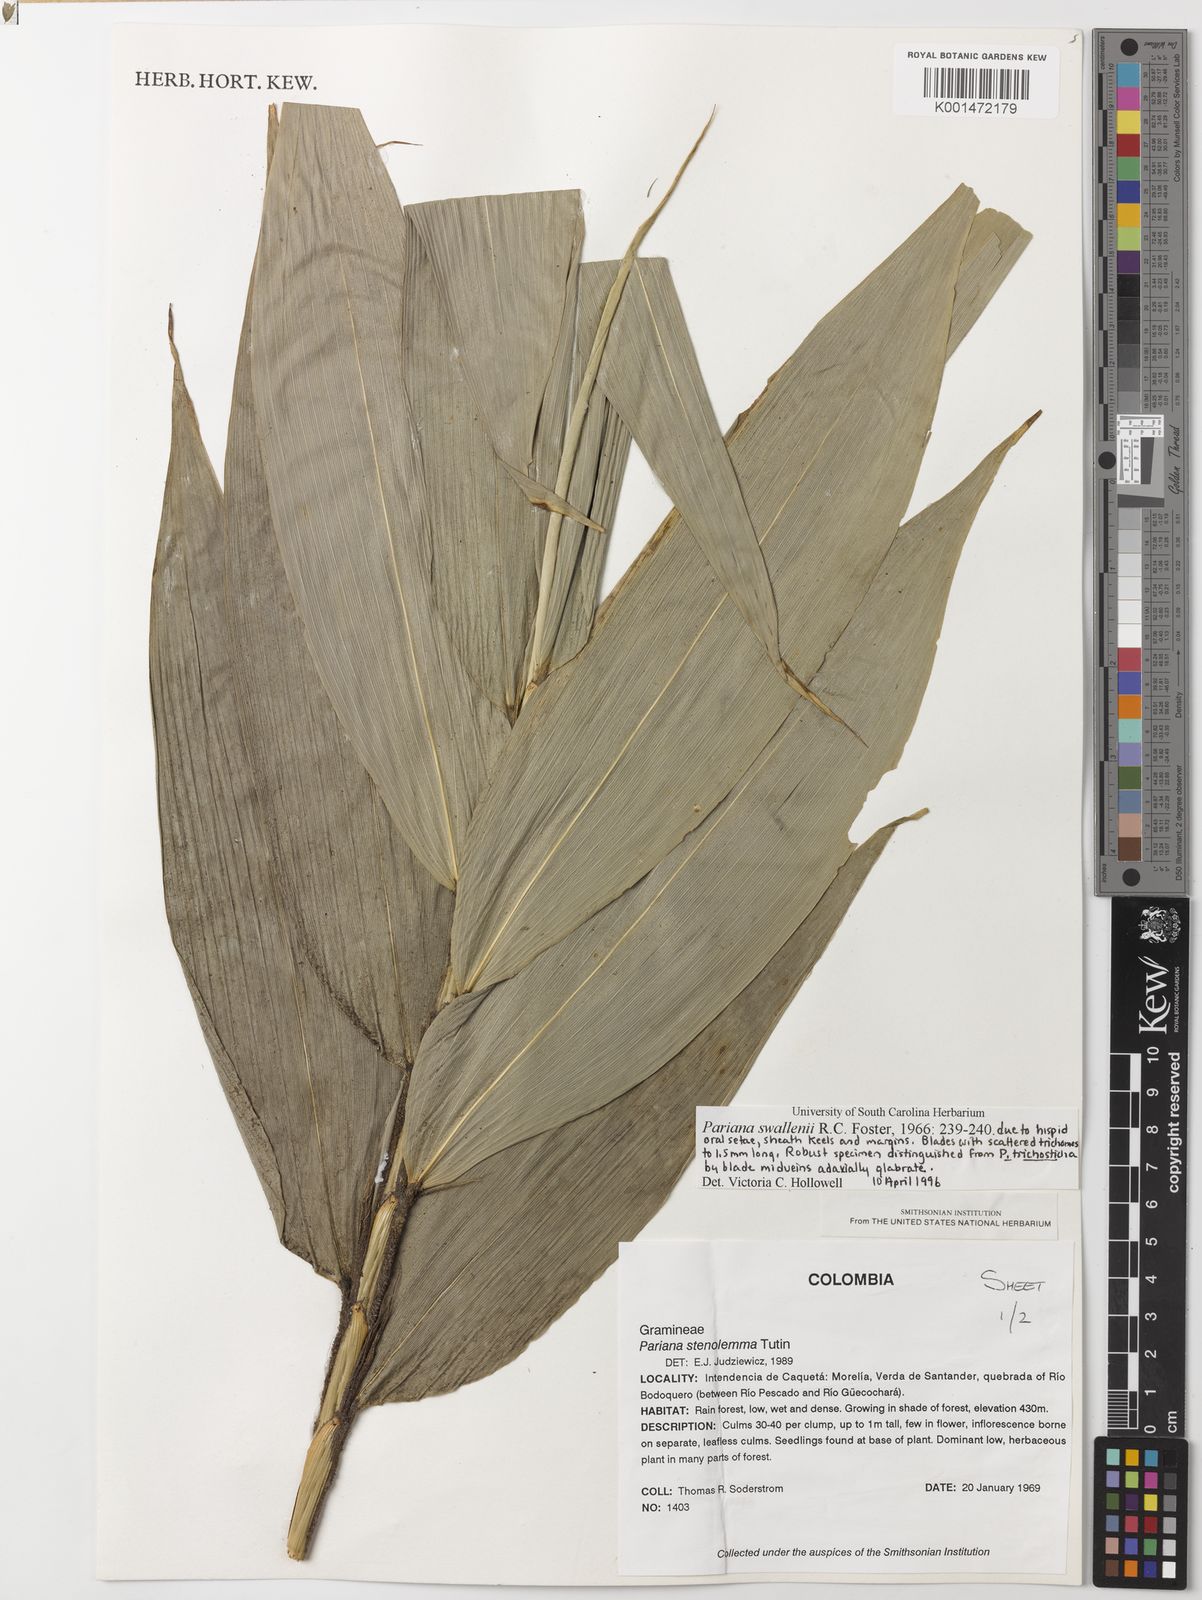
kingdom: Plantae
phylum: Tracheophyta
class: Liliopsida
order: Poales
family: Poaceae
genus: Pariana
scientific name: Pariana swallenii
